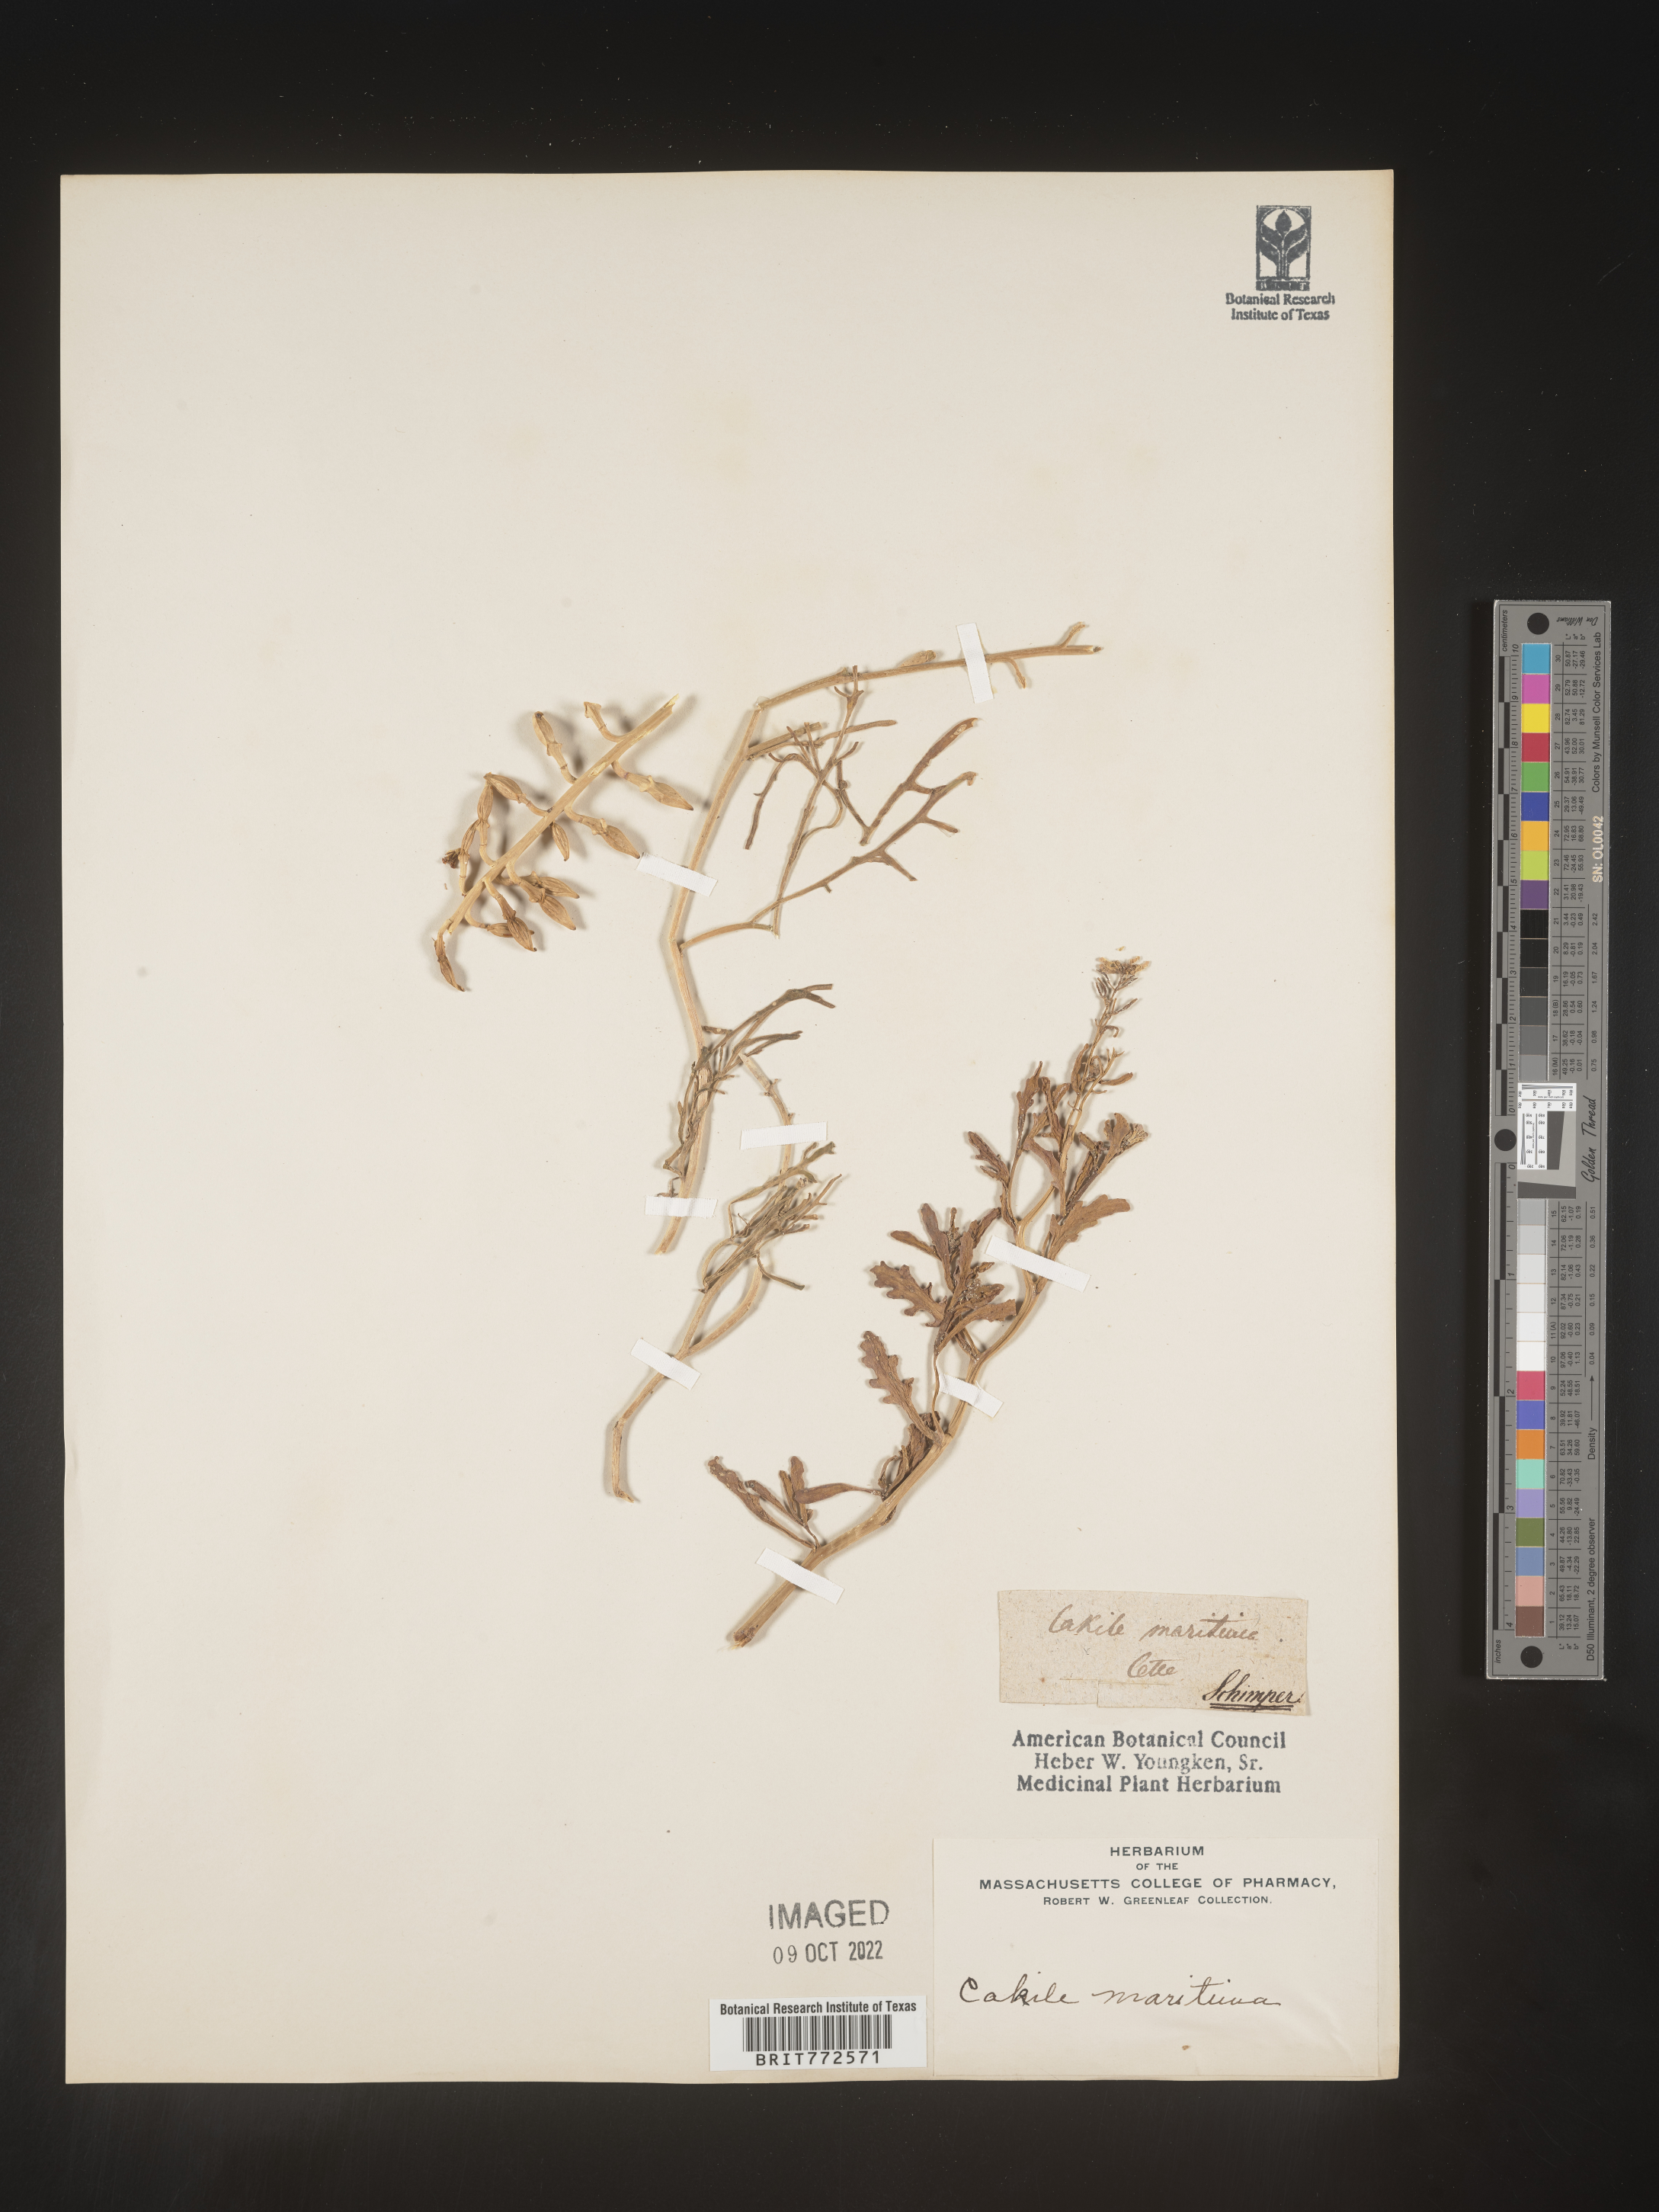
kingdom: Plantae
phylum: Tracheophyta
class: Magnoliopsida
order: Brassicales
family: Brassicaceae
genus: Cakile
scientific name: Cakile maritima
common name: Sea rocket
